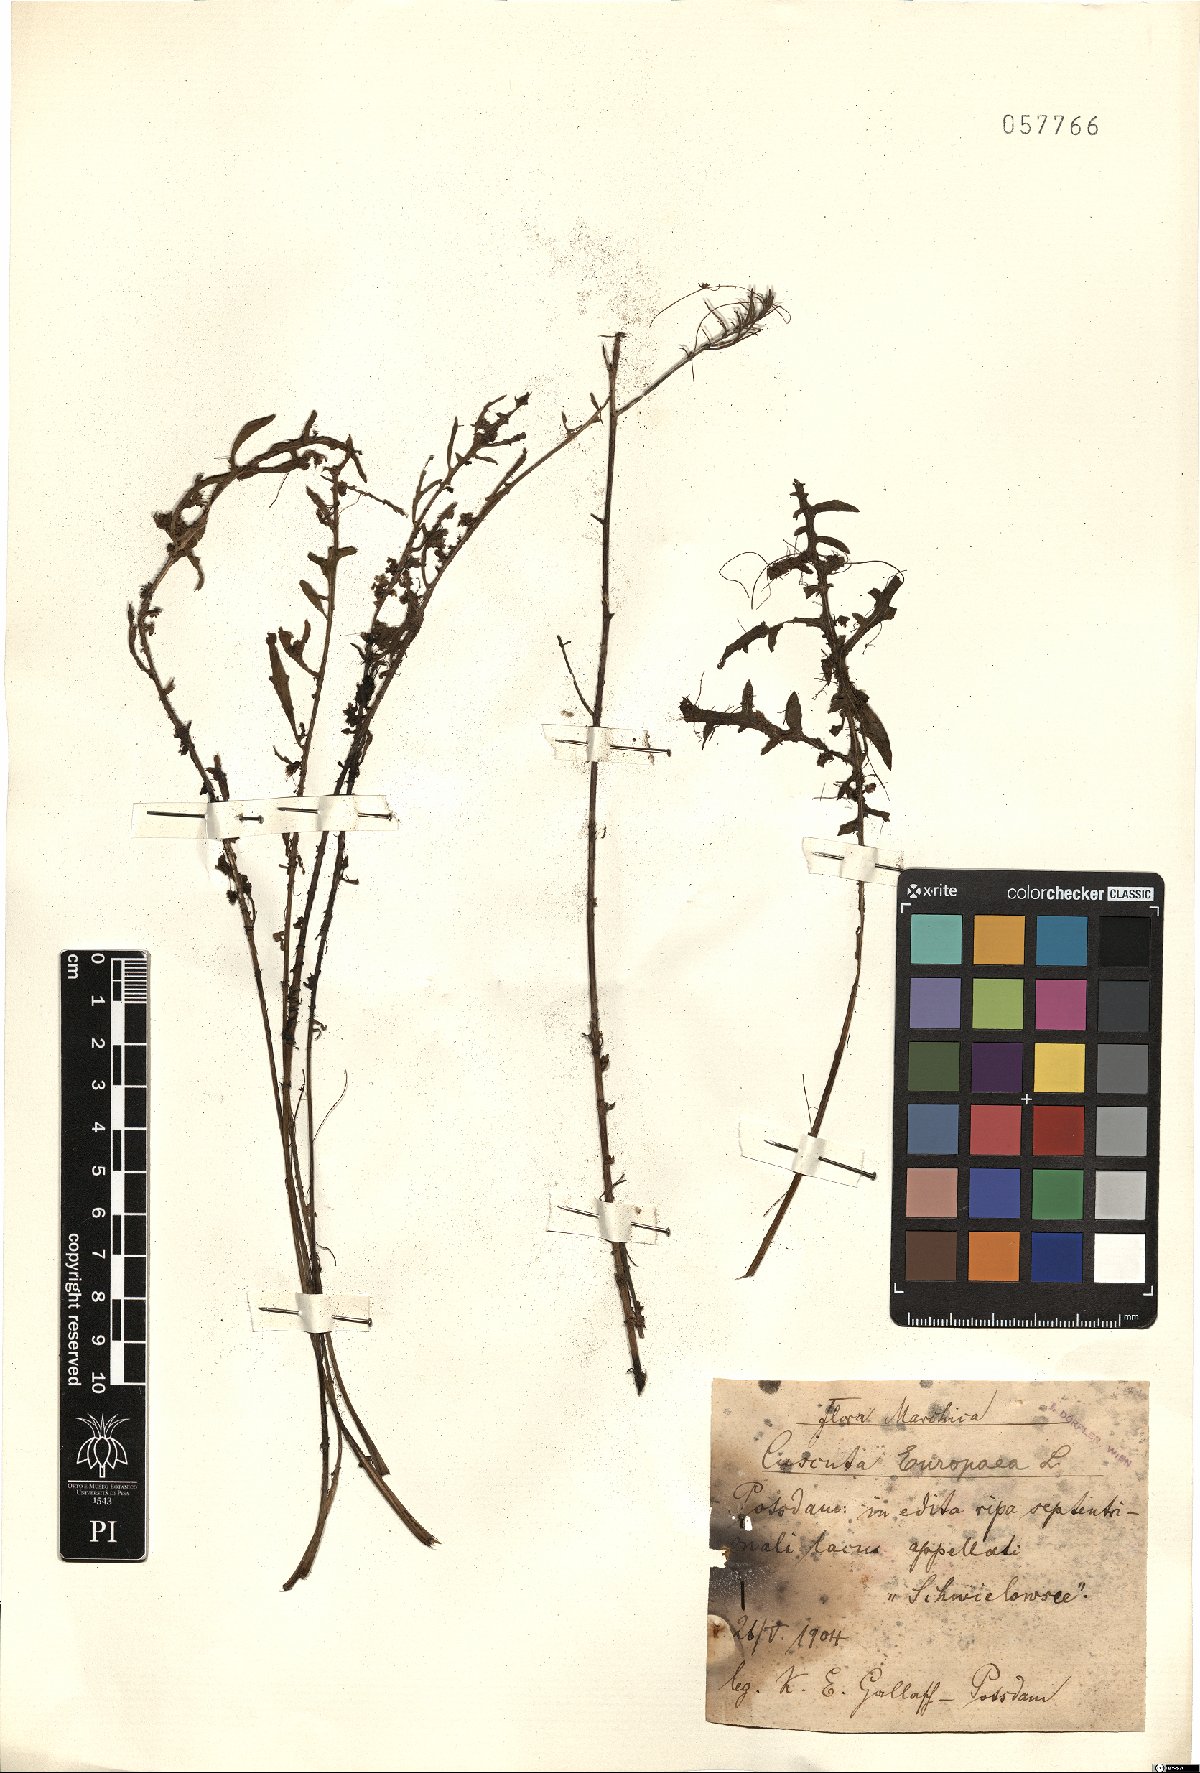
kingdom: Plantae
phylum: Tracheophyta
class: Magnoliopsida
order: Solanales
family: Convolvulaceae
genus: Cuscuta
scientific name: Cuscuta europaea
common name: Greater dodder
